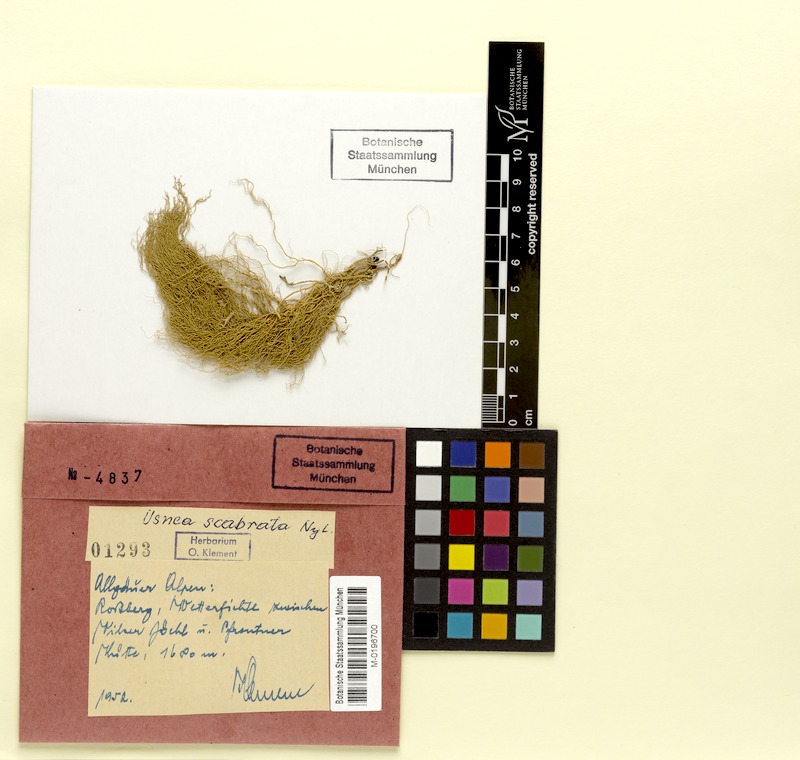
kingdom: Fungi
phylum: Ascomycota
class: Lecanoromycetes
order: Lecanorales
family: Parmeliaceae
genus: Usnea
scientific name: Usnea scabrata
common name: Straw beard lichen
